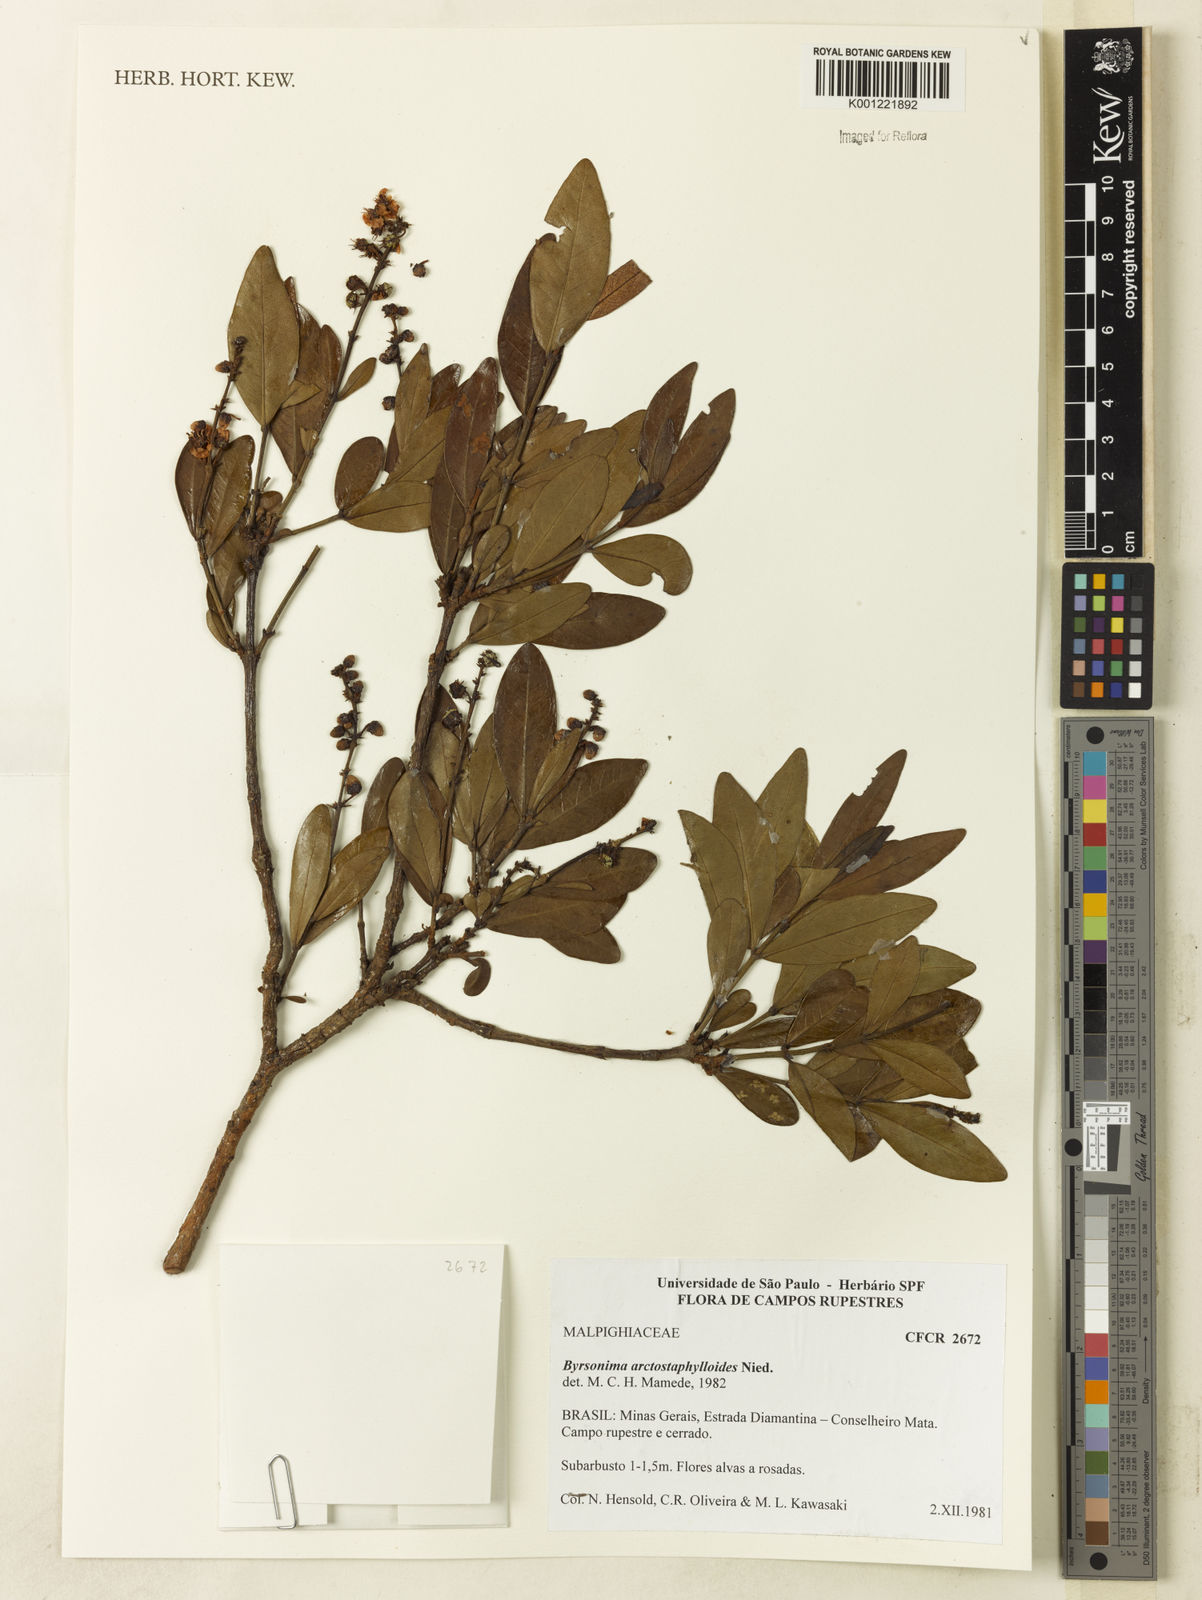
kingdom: Plantae
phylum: Tracheophyta
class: Magnoliopsida
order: Malpighiales
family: Malpighiaceae
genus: Byrsonima
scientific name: Byrsonima arctostaphyloides
